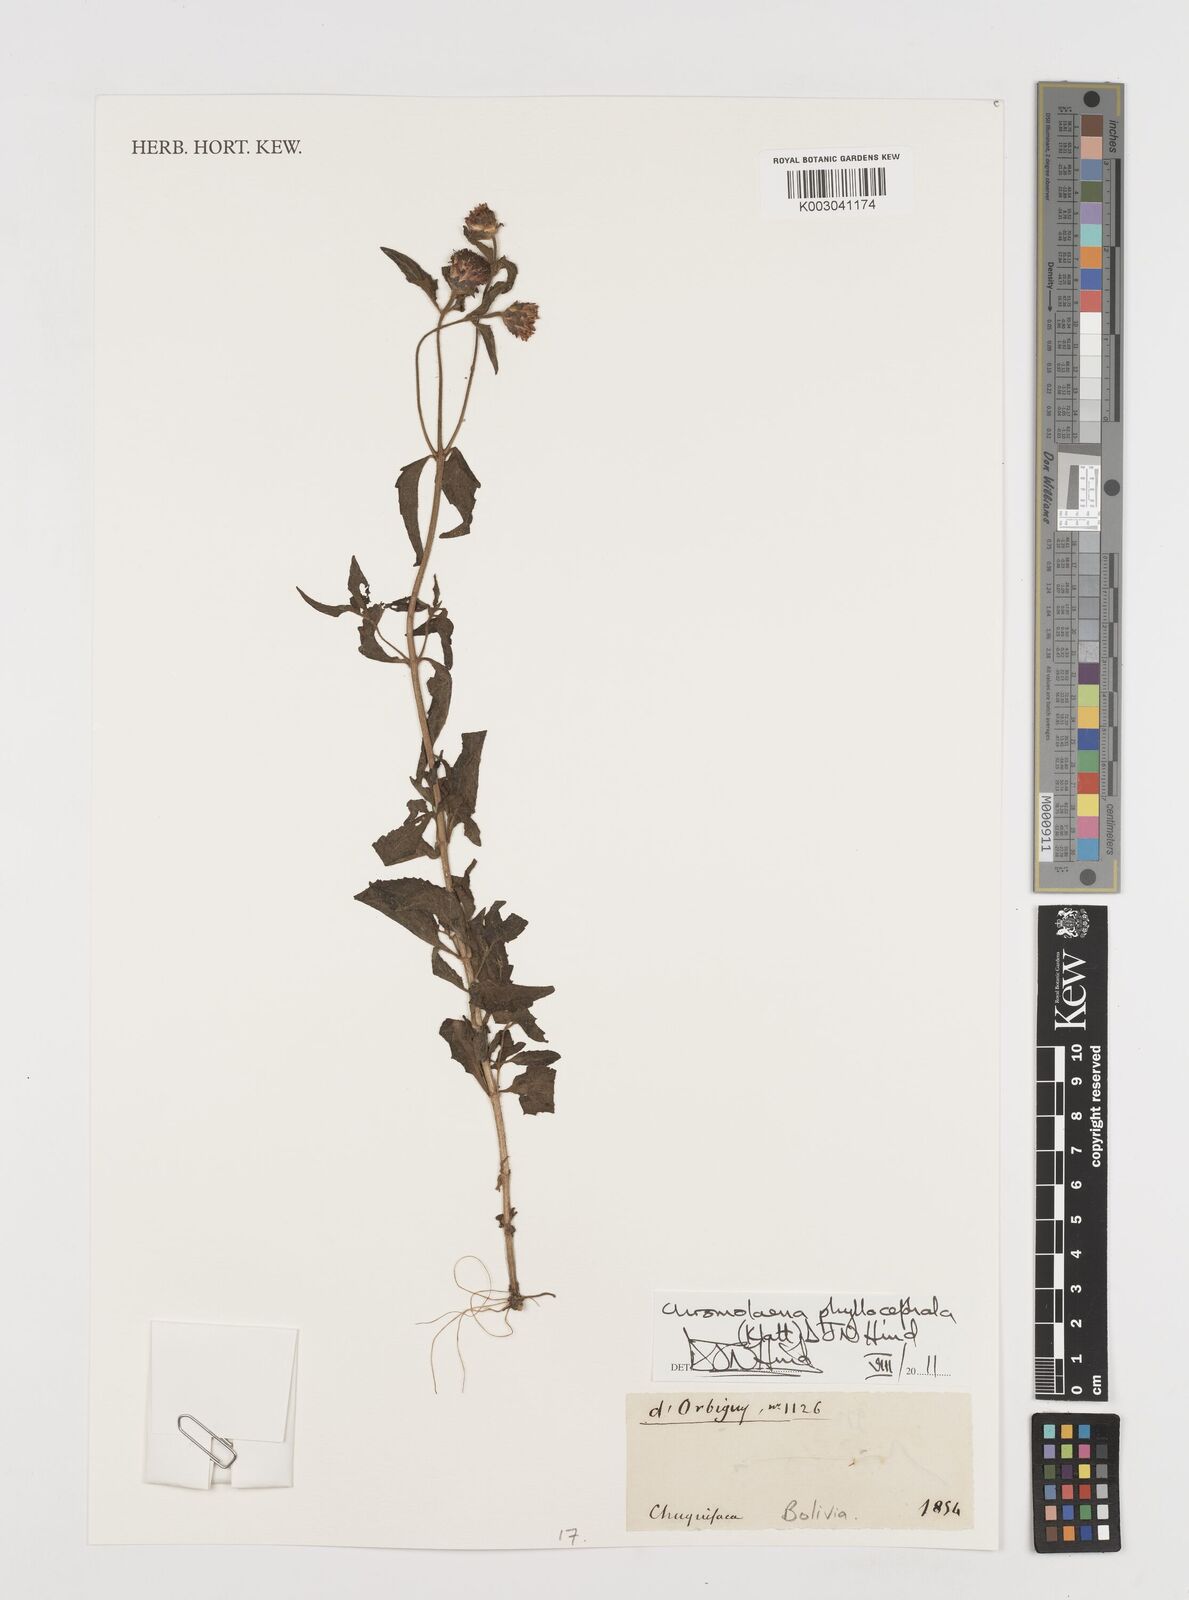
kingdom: Plantae
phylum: Tracheophyta
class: Magnoliopsida
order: Asterales
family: Asteraceae
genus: Chromolaena
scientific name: Chromolaena hirsuta
